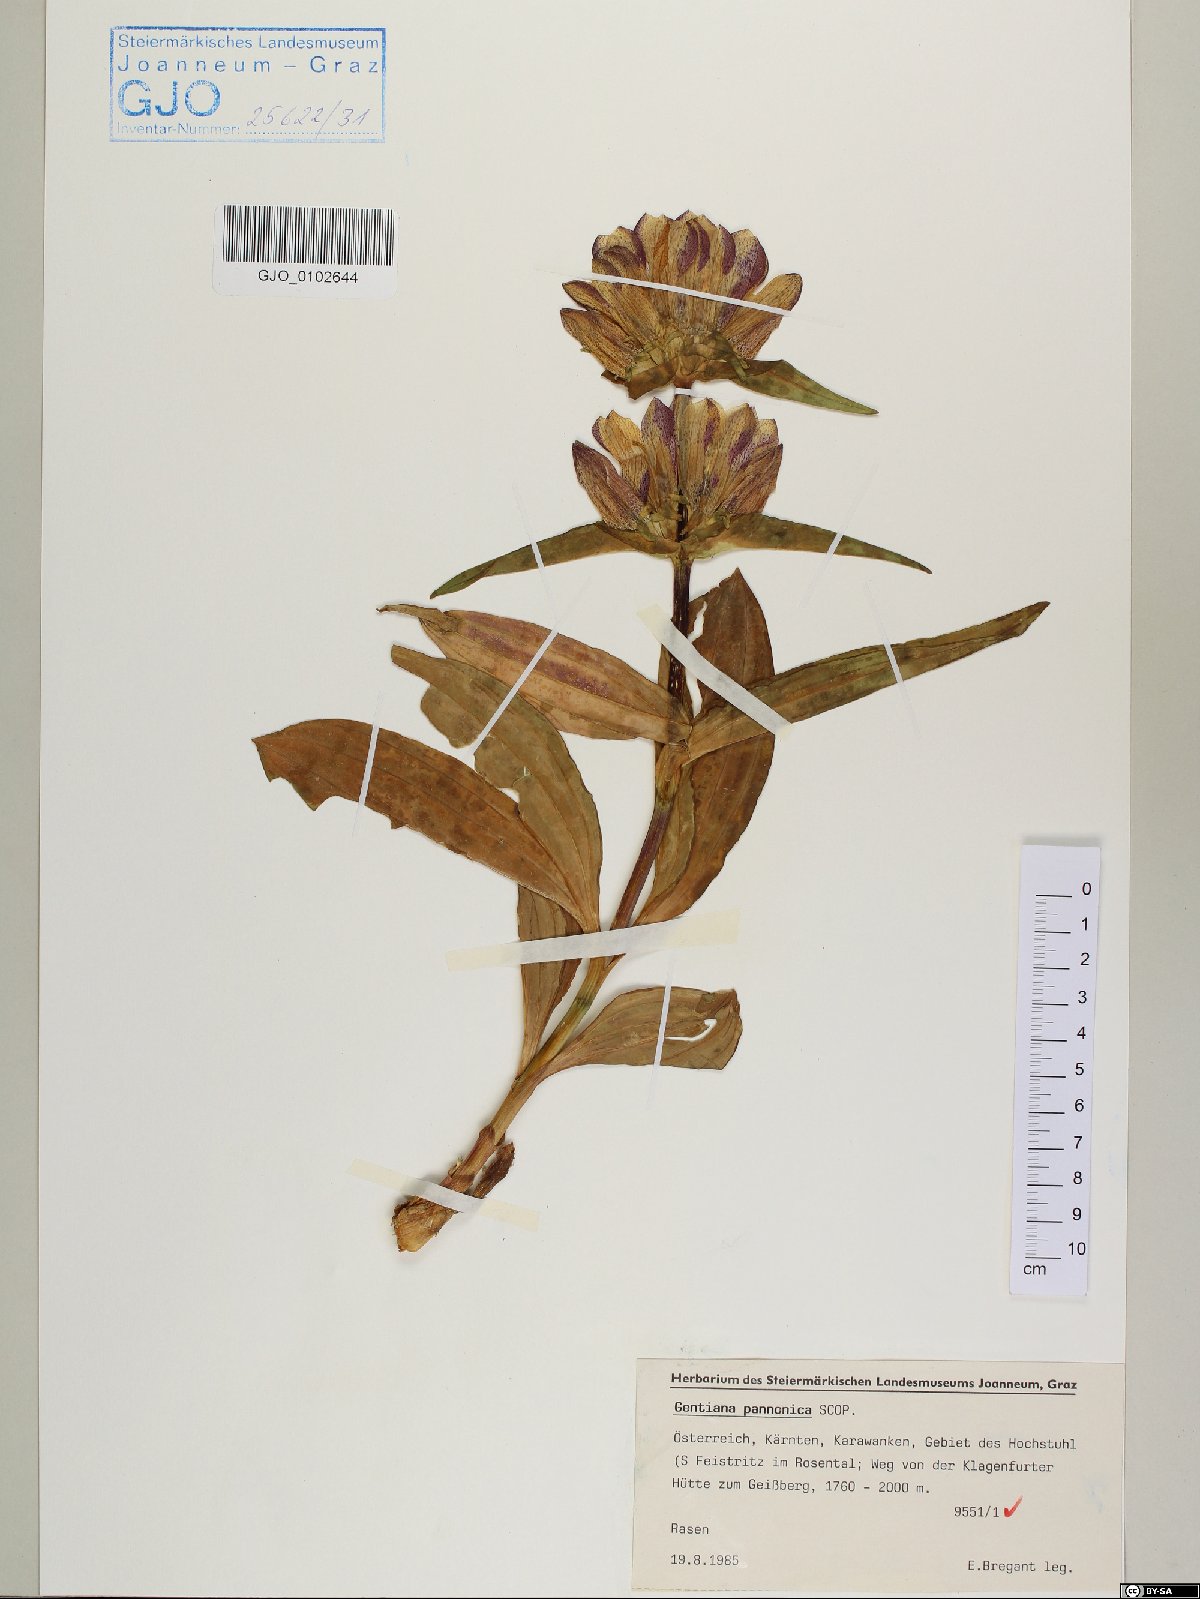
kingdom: Plantae
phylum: Tracheophyta
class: Magnoliopsida
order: Gentianales
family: Gentianaceae
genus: Gentiana
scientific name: Gentiana pannonica
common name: Hungarian gentian
